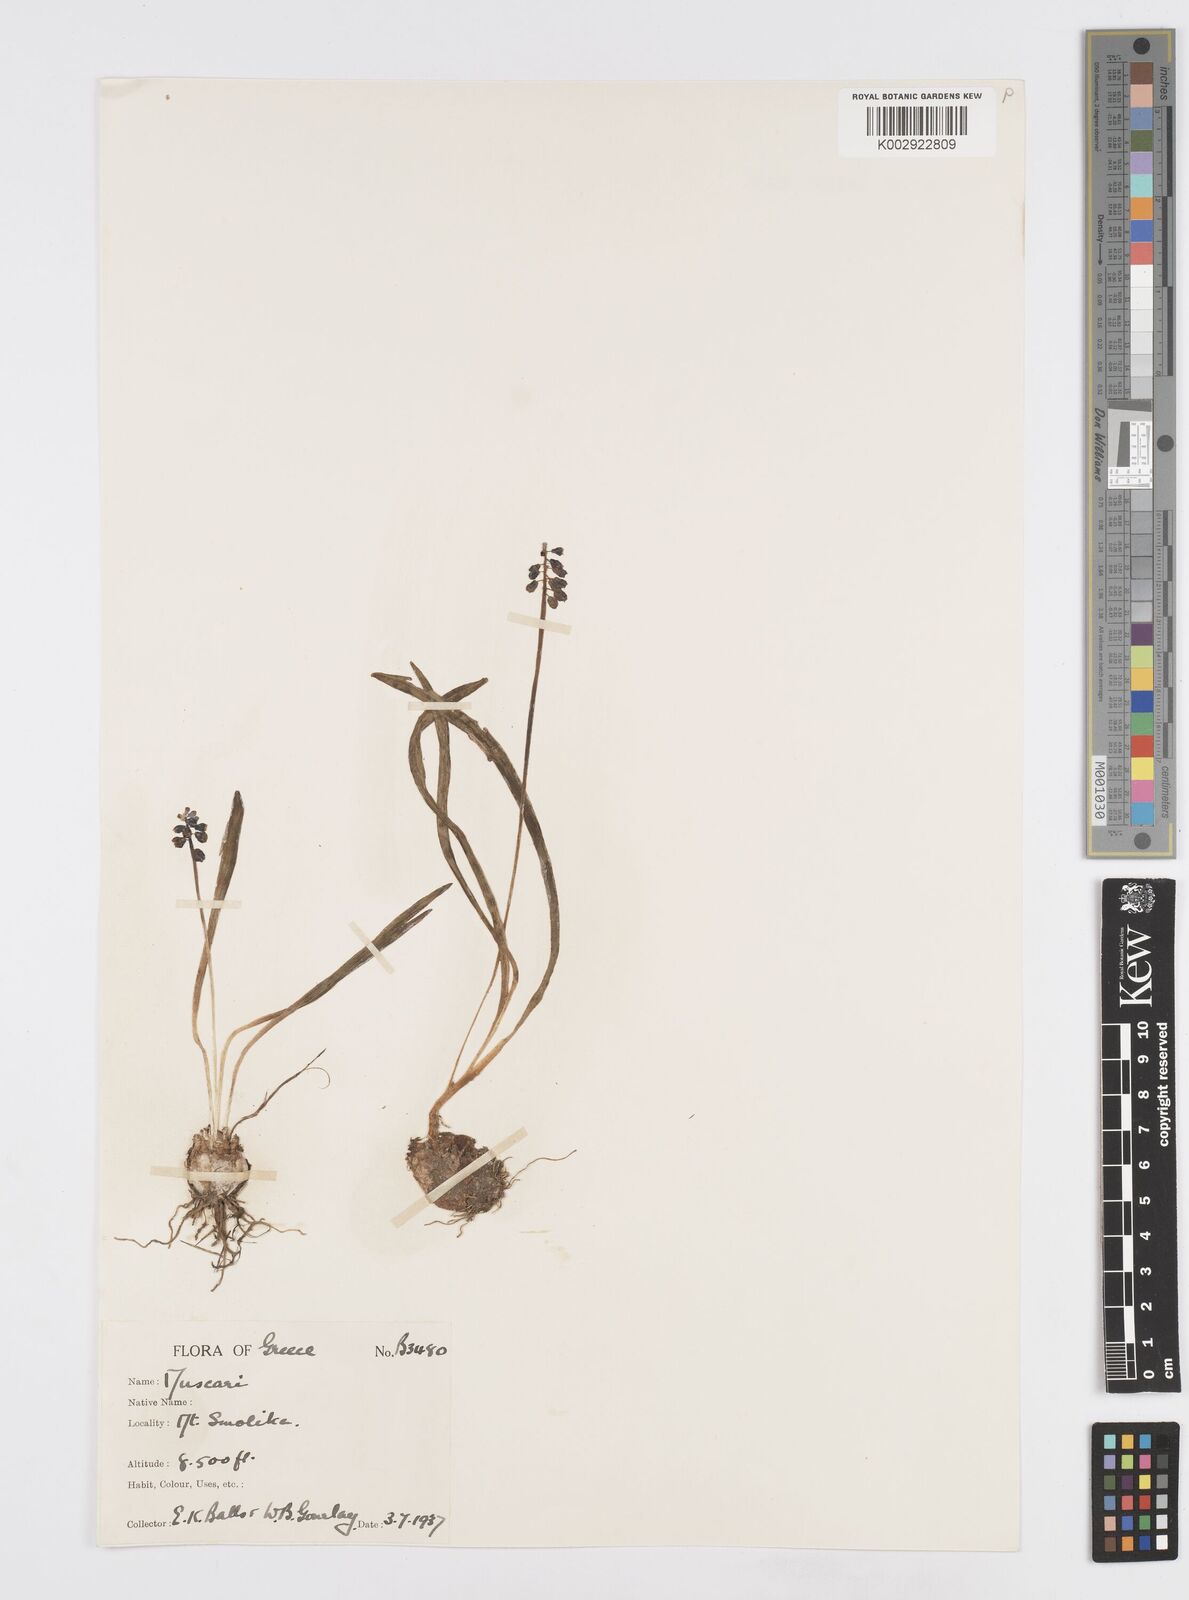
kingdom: Plantae
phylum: Tracheophyta
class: Liliopsida
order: Asparagales
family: Asparagaceae
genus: Muscari
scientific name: Muscari botryoides
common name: Compact grape-hyacinth
